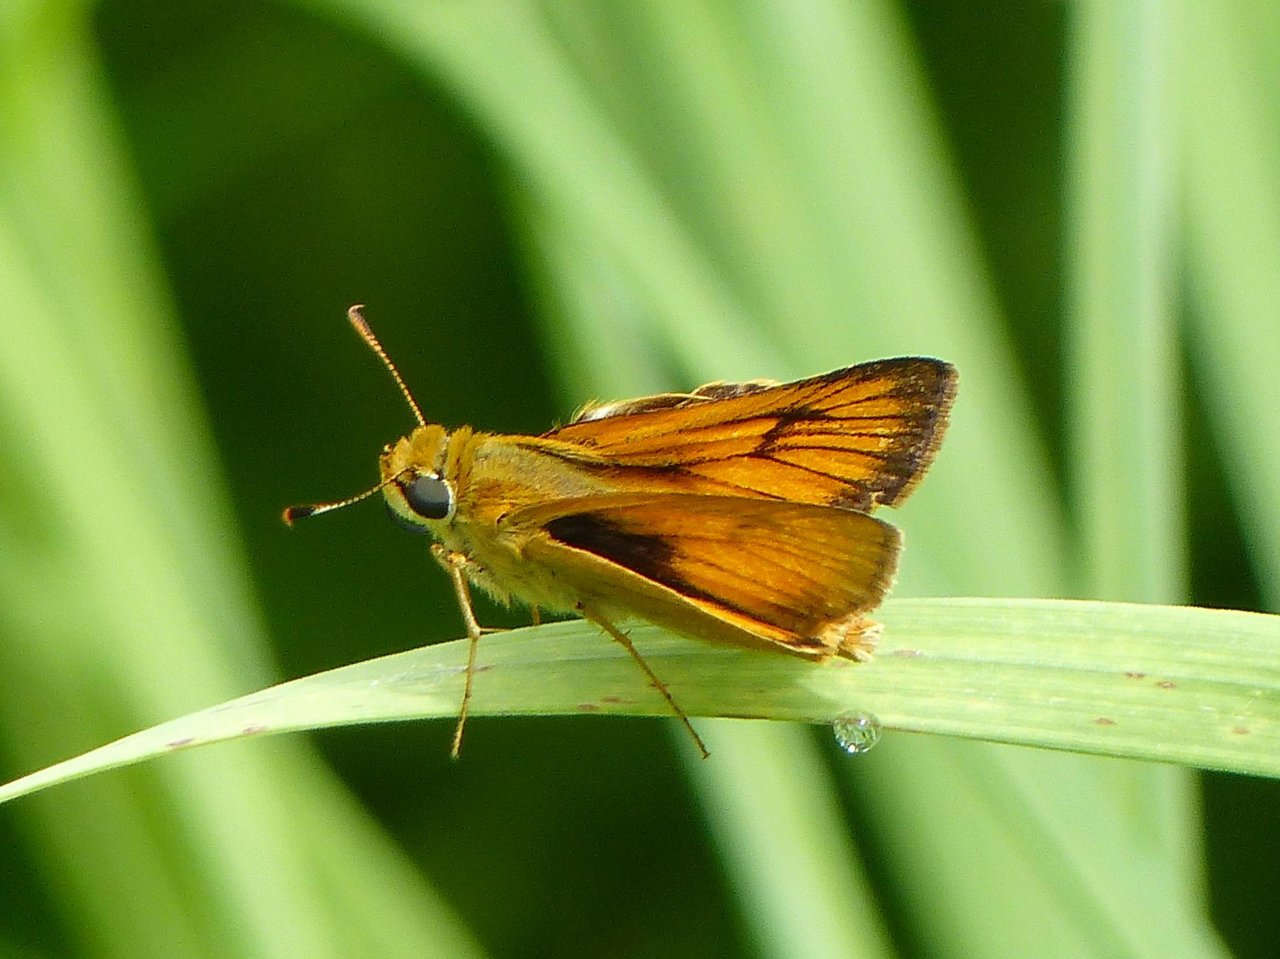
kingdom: Animalia
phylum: Arthropoda
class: Insecta
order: Lepidoptera
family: Hesperiidae
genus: Atrytone
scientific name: Atrytone delaware
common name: Delaware Skipper
